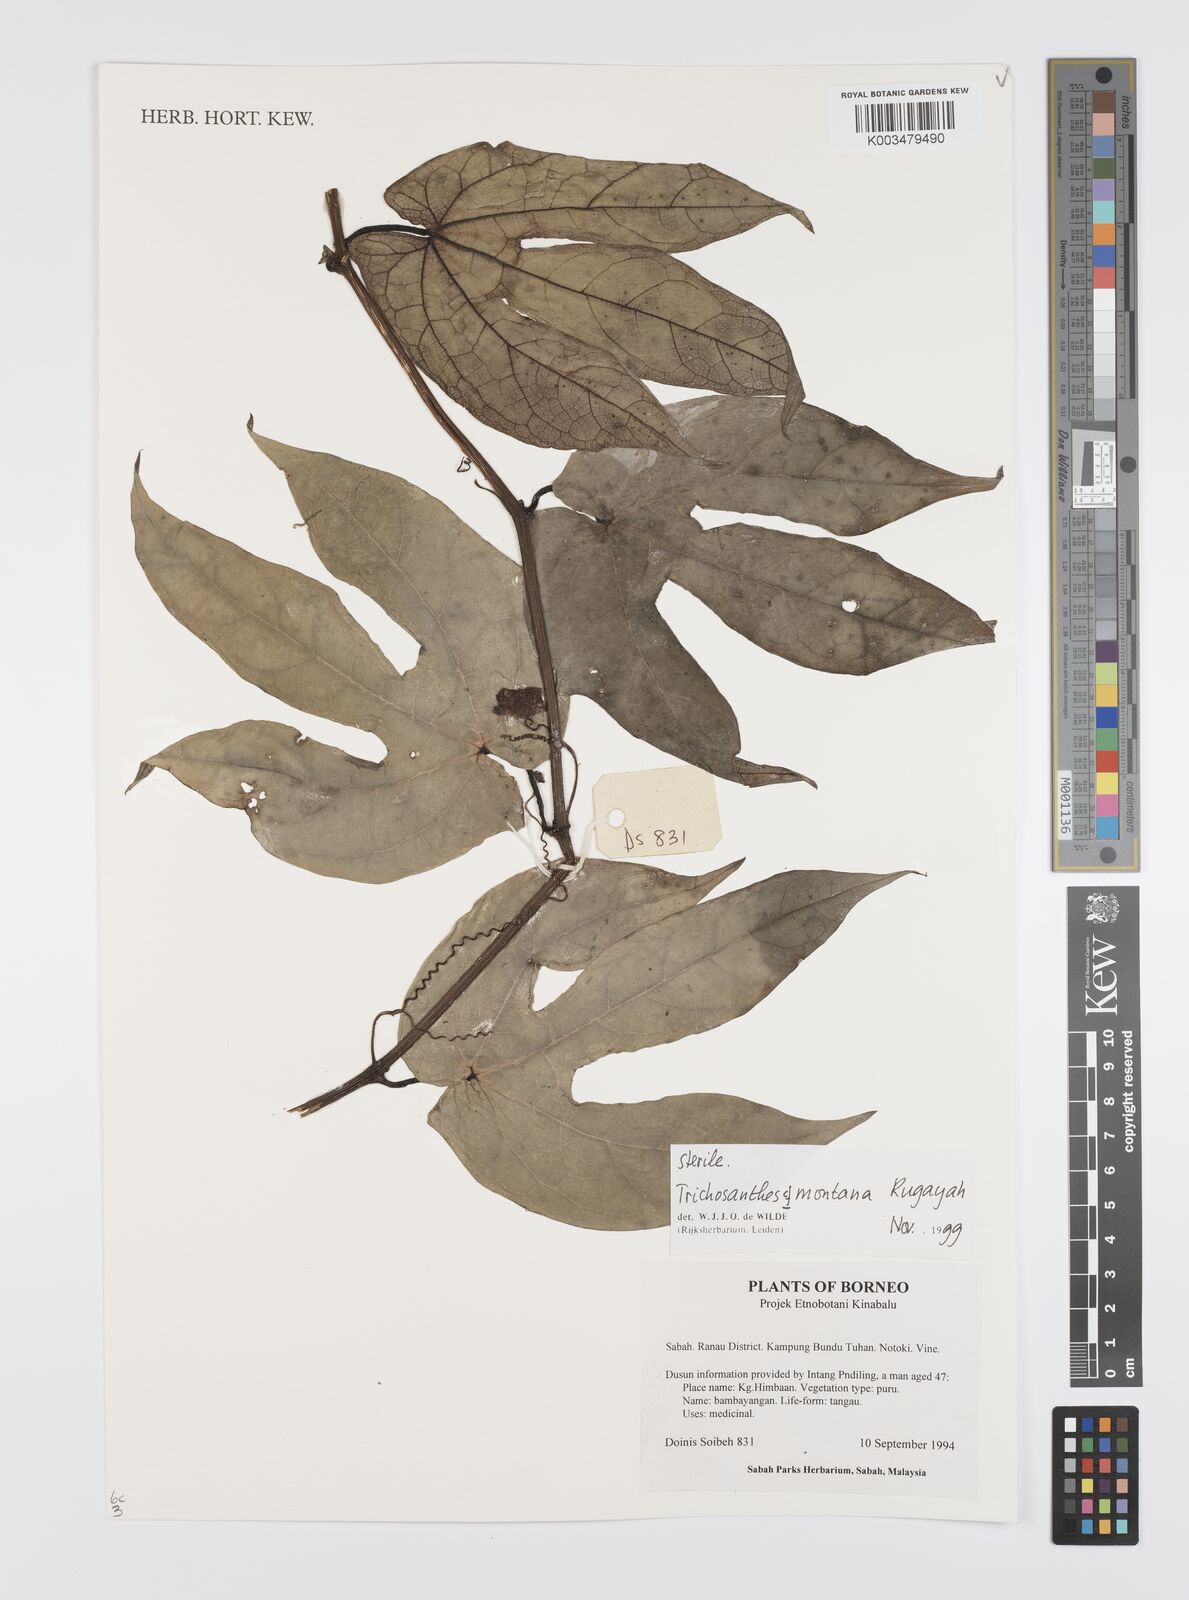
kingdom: Plantae
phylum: Tracheophyta
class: Magnoliopsida
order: Cucurbitales
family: Cucurbitaceae
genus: Trichosanthes
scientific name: Trichosanthes montana
